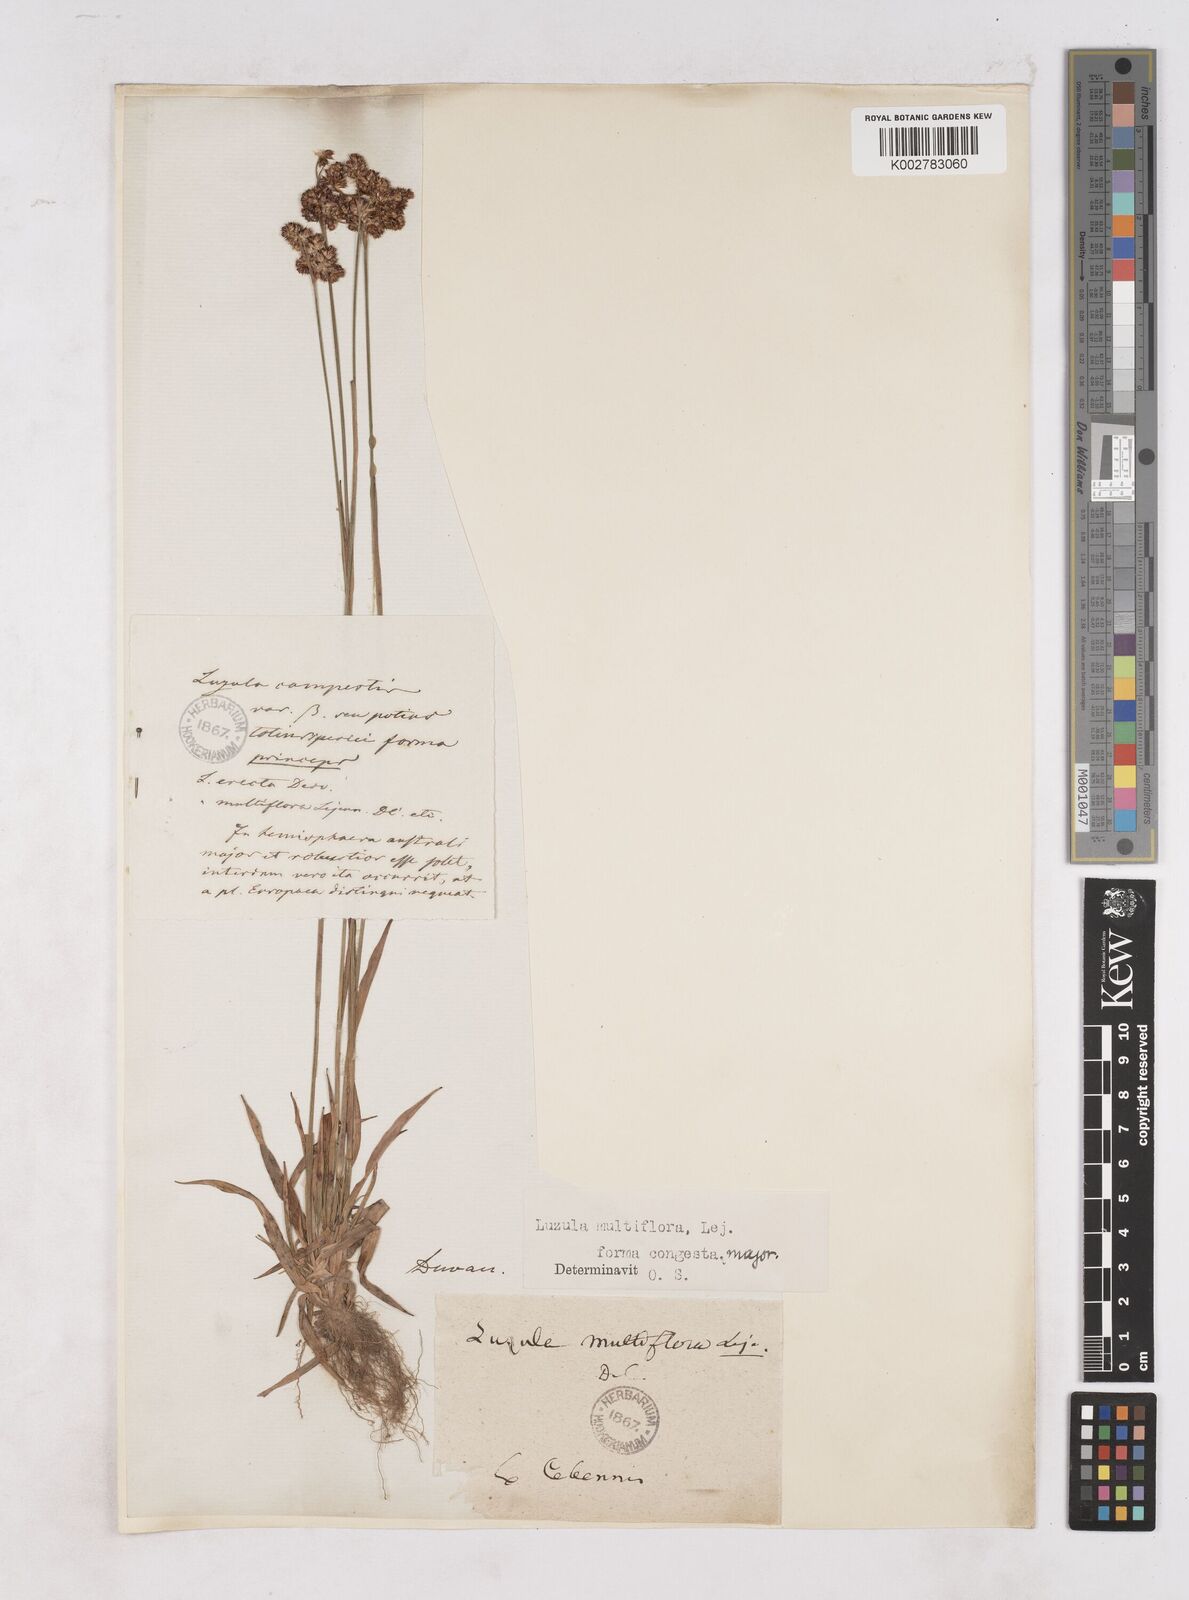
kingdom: Plantae
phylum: Tracheophyta
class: Liliopsida
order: Poales
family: Juncaceae
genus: Luzula
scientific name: Luzula campestris
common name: Field wood-rush
